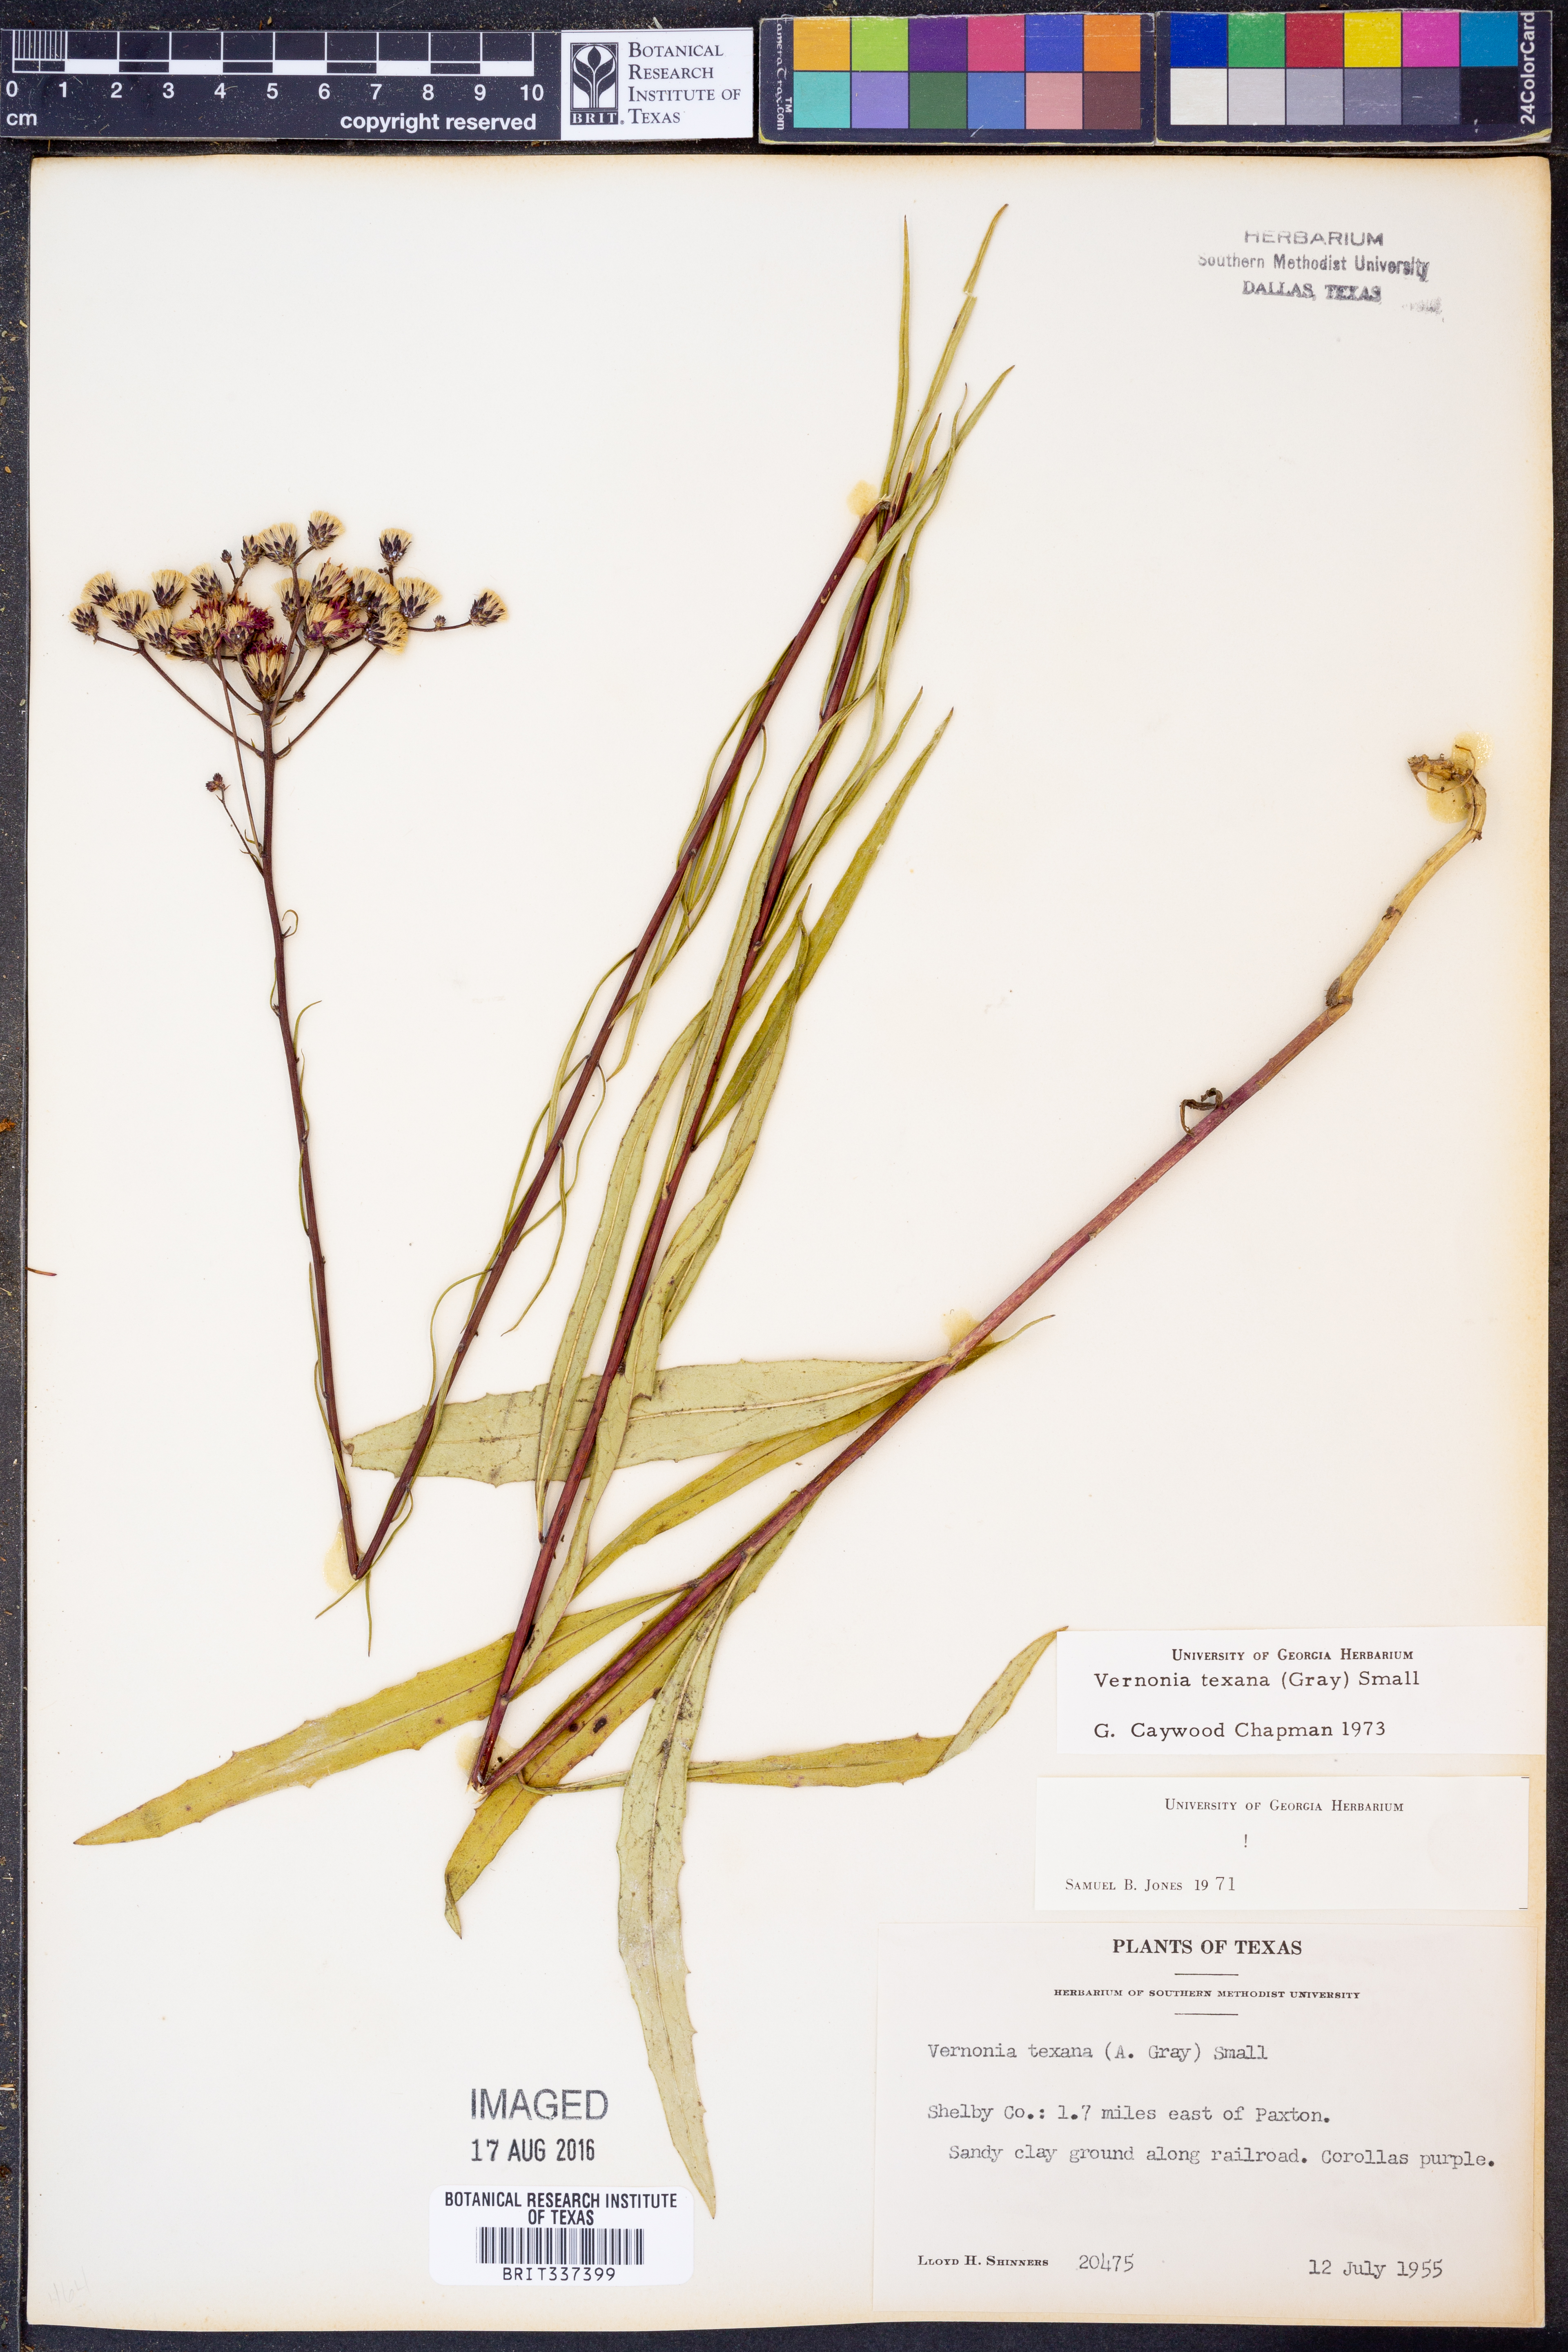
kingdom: Plantae
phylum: Tracheophyta
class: Magnoliopsida
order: Asterales
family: Asteraceae
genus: Vernonia
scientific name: Vernonia texana
